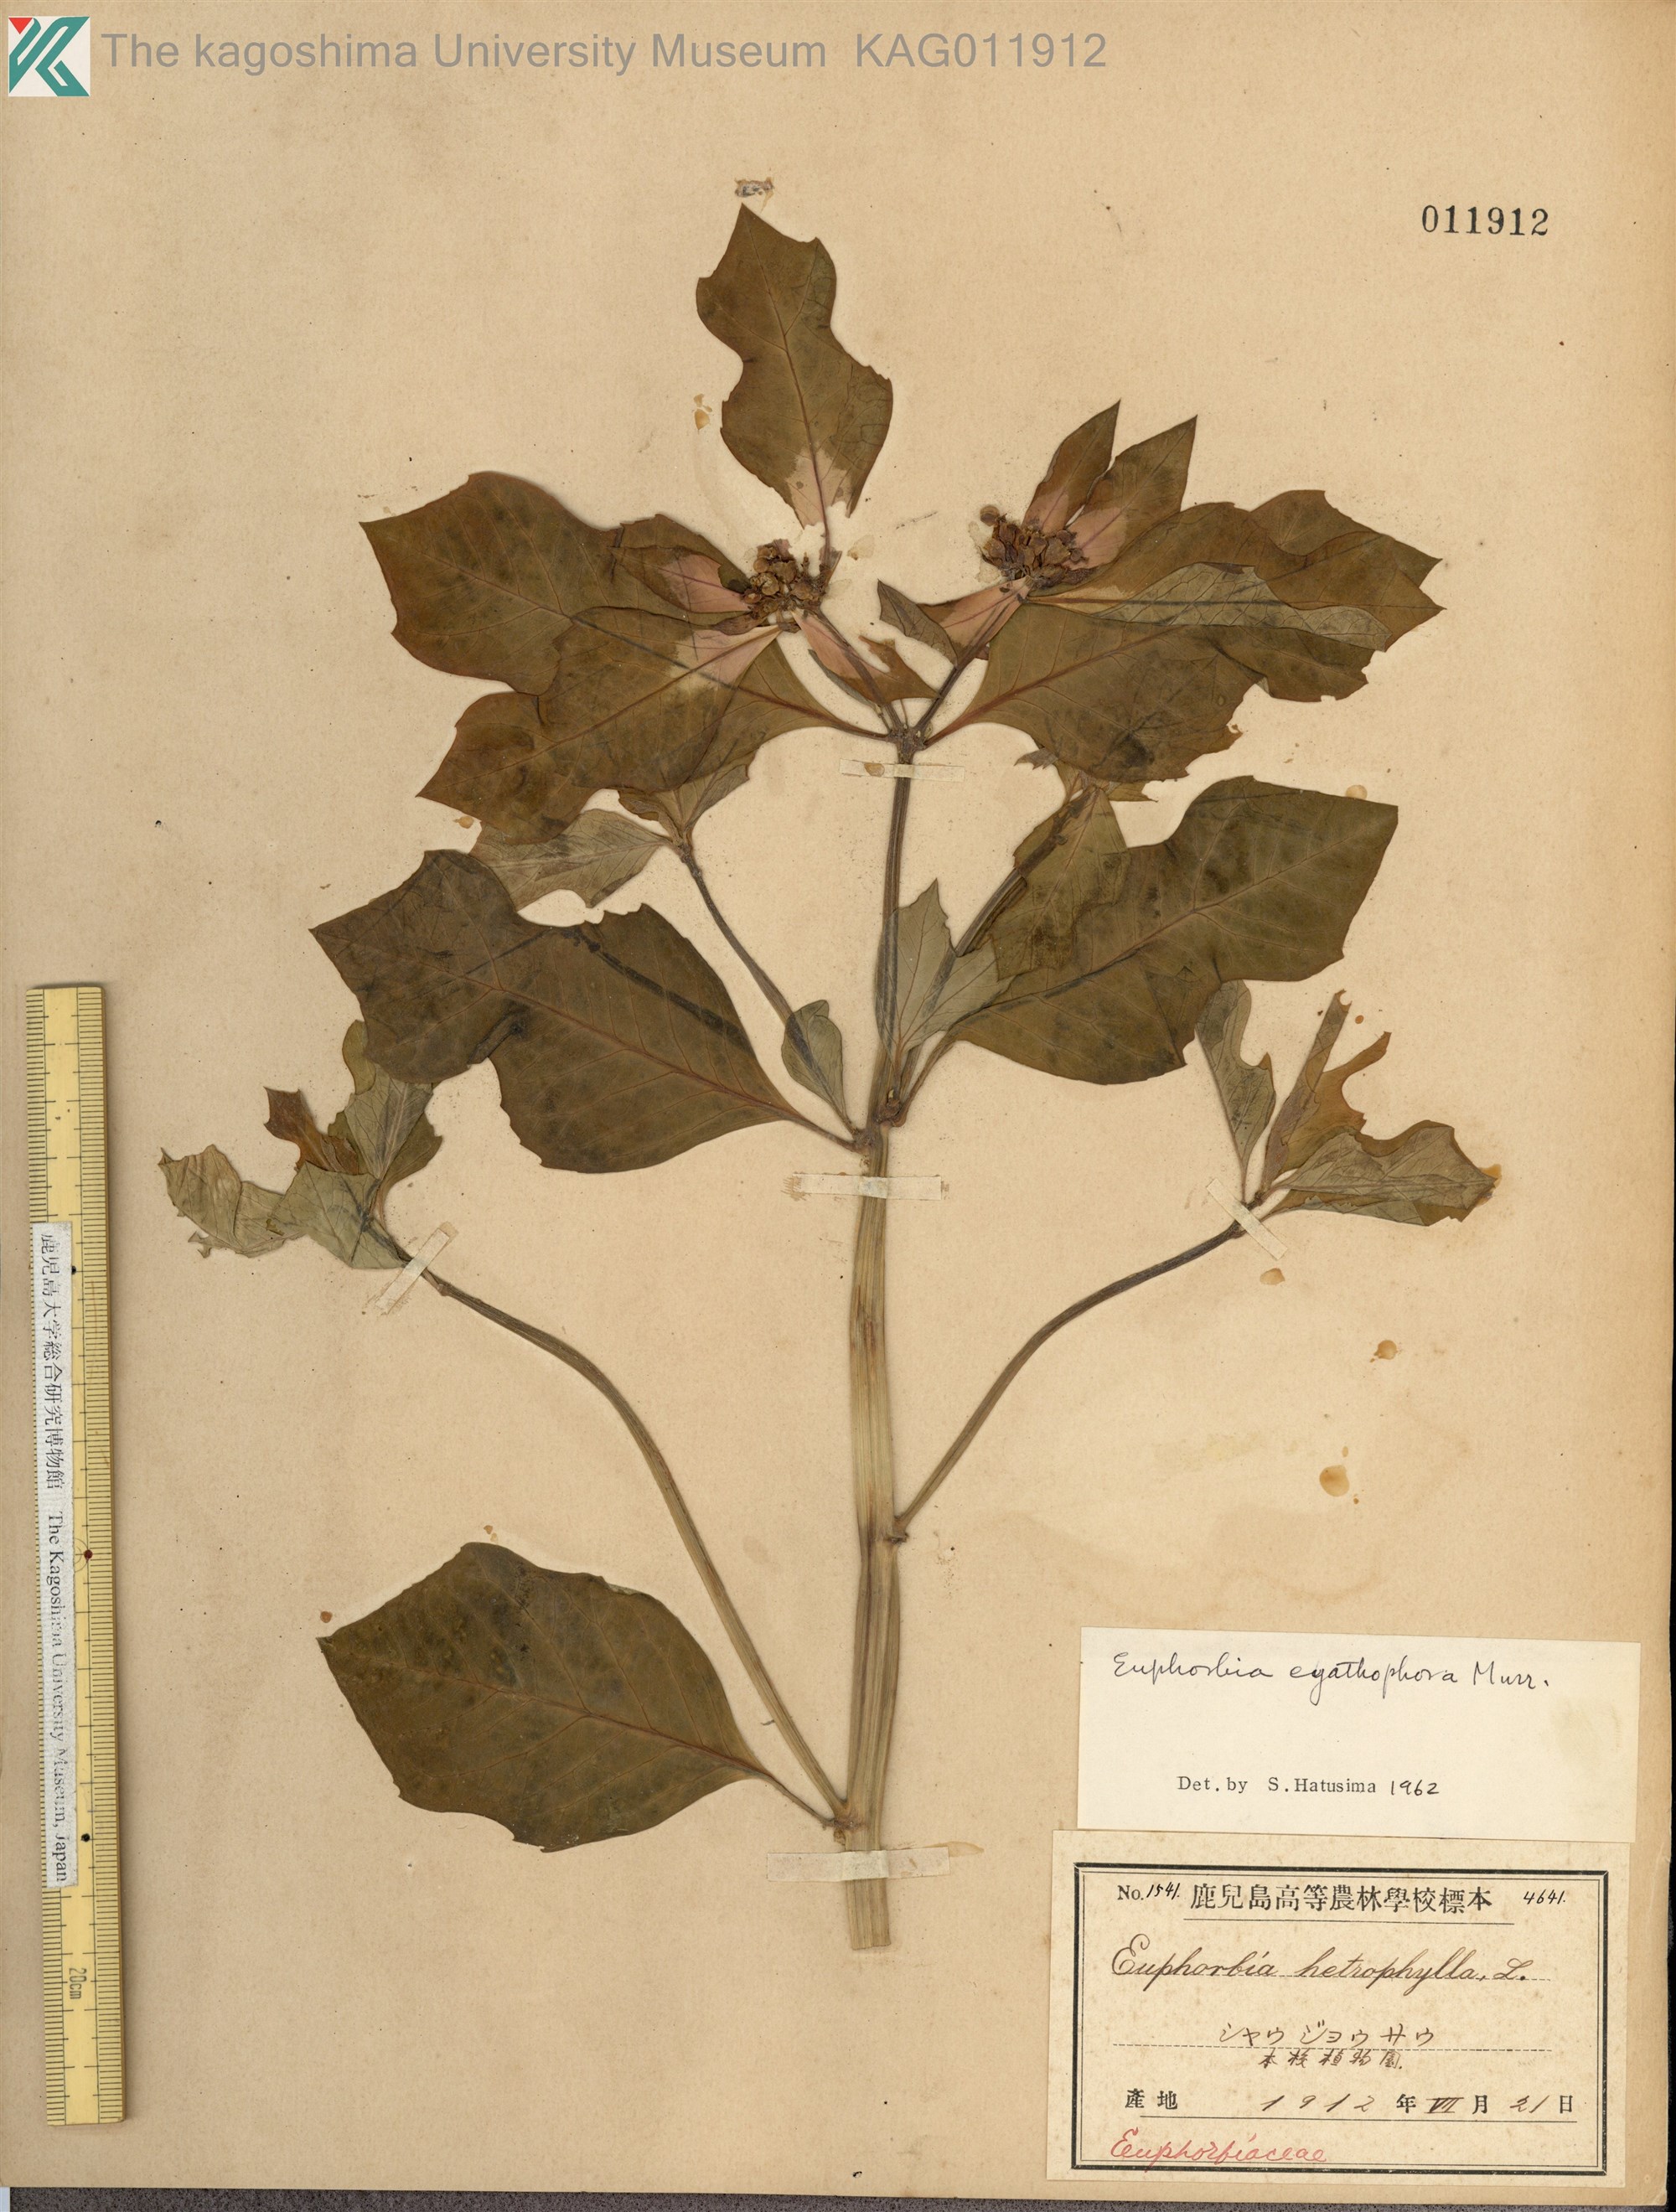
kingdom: Plantae
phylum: Tracheophyta
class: Magnoliopsida
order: Malpighiales
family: Euphorbiaceae
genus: Euphorbia
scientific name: Euphorbia heterophylla
